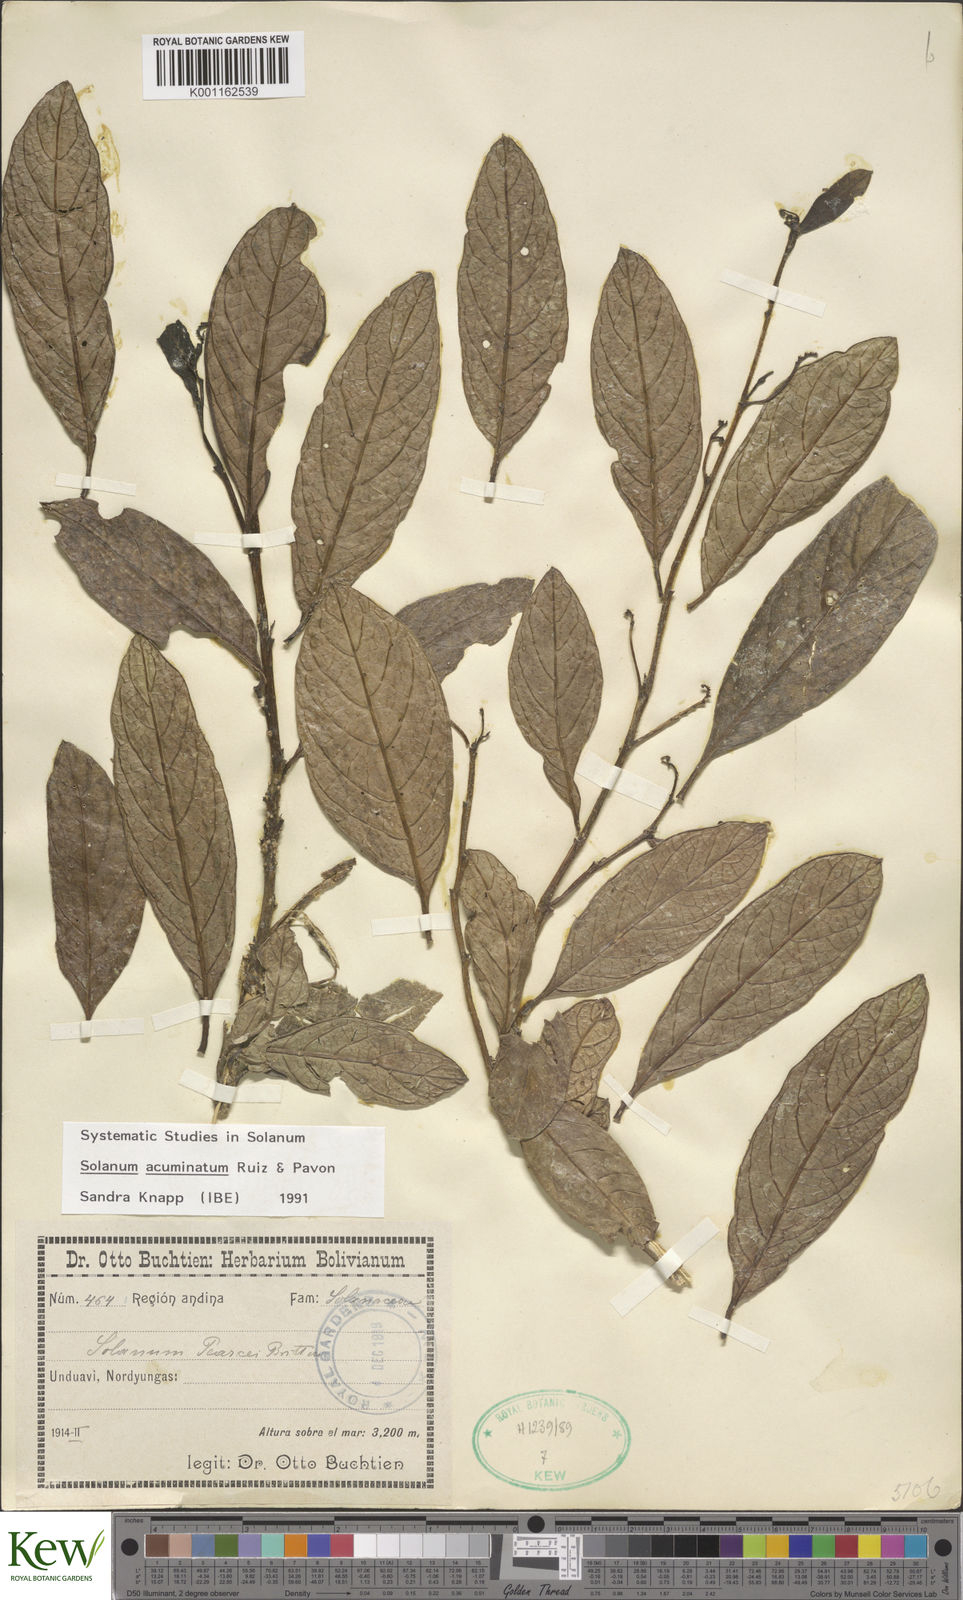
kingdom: Plantae
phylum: Tracheophyta
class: Magnoliopsida
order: Solanales
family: Solanaceae
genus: Solanum
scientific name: Solanum acuminatum
